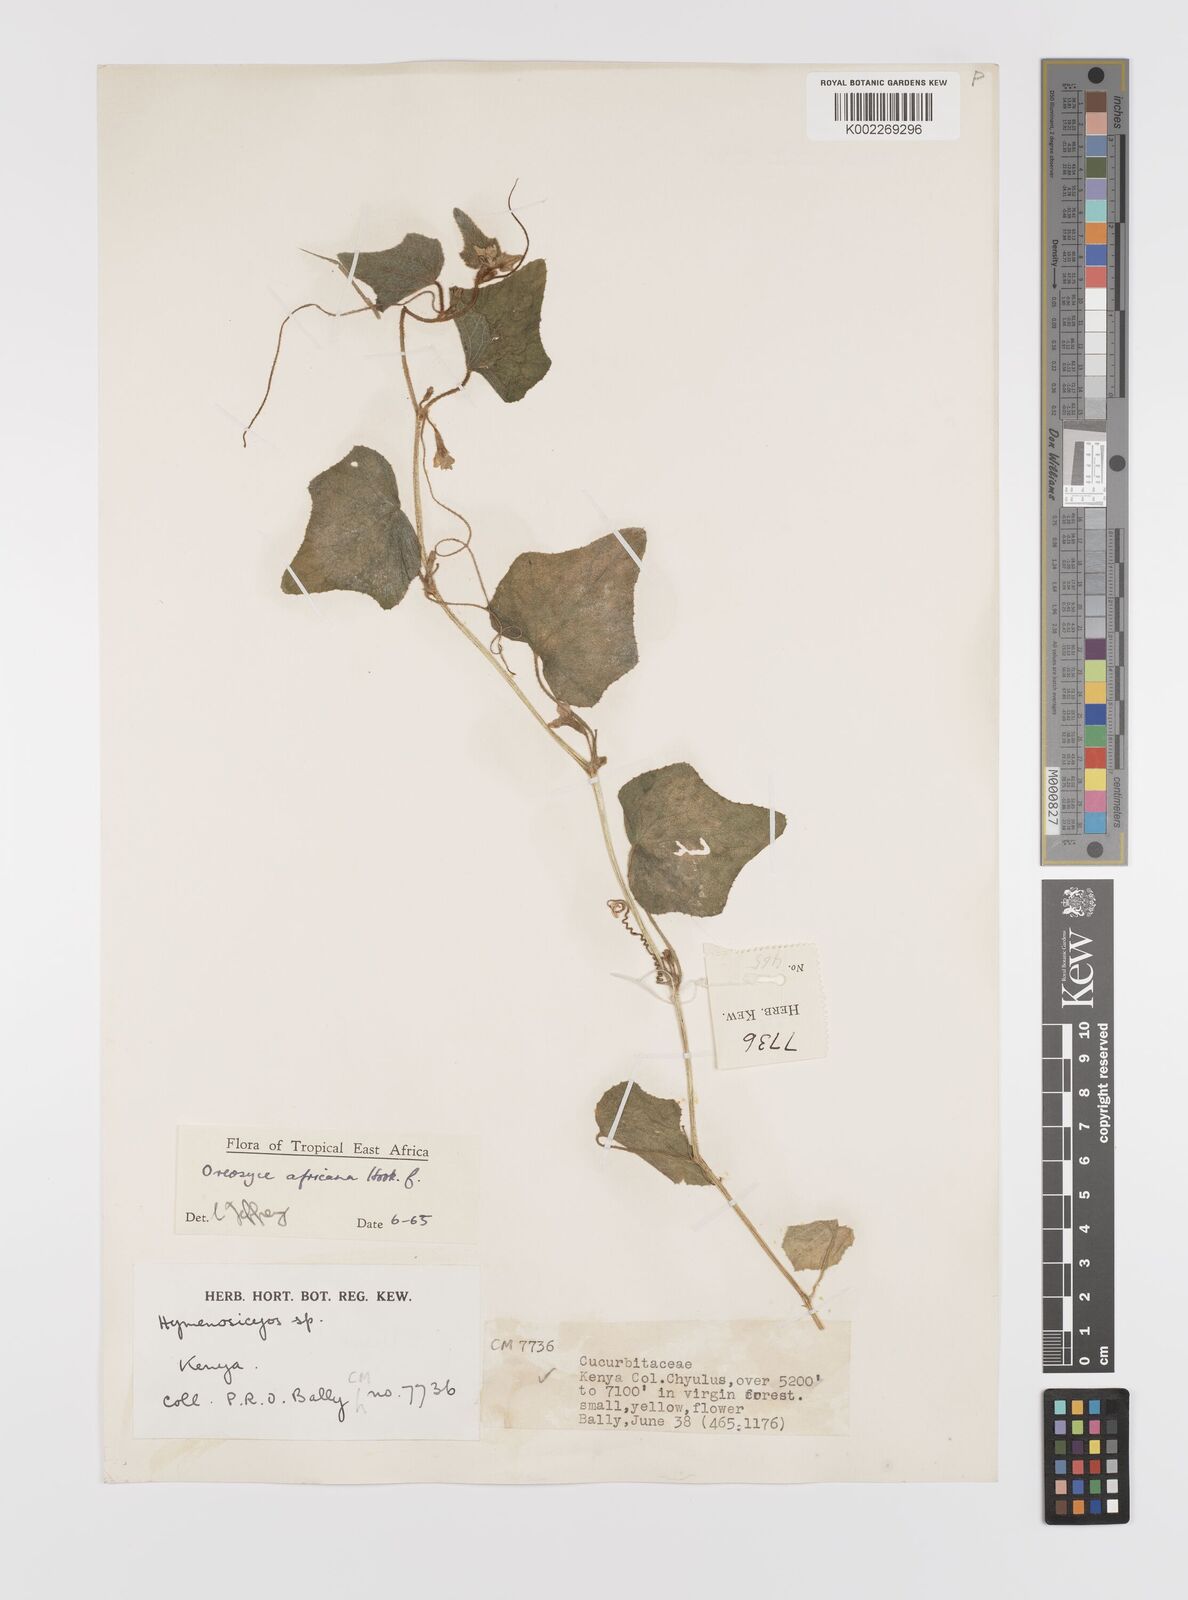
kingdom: Plantae
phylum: Tracheophyta
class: Magnoliopsida
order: Cucurbitales
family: Cucurbitaceae
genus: Cucumis
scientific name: Cucumis oreosyce
